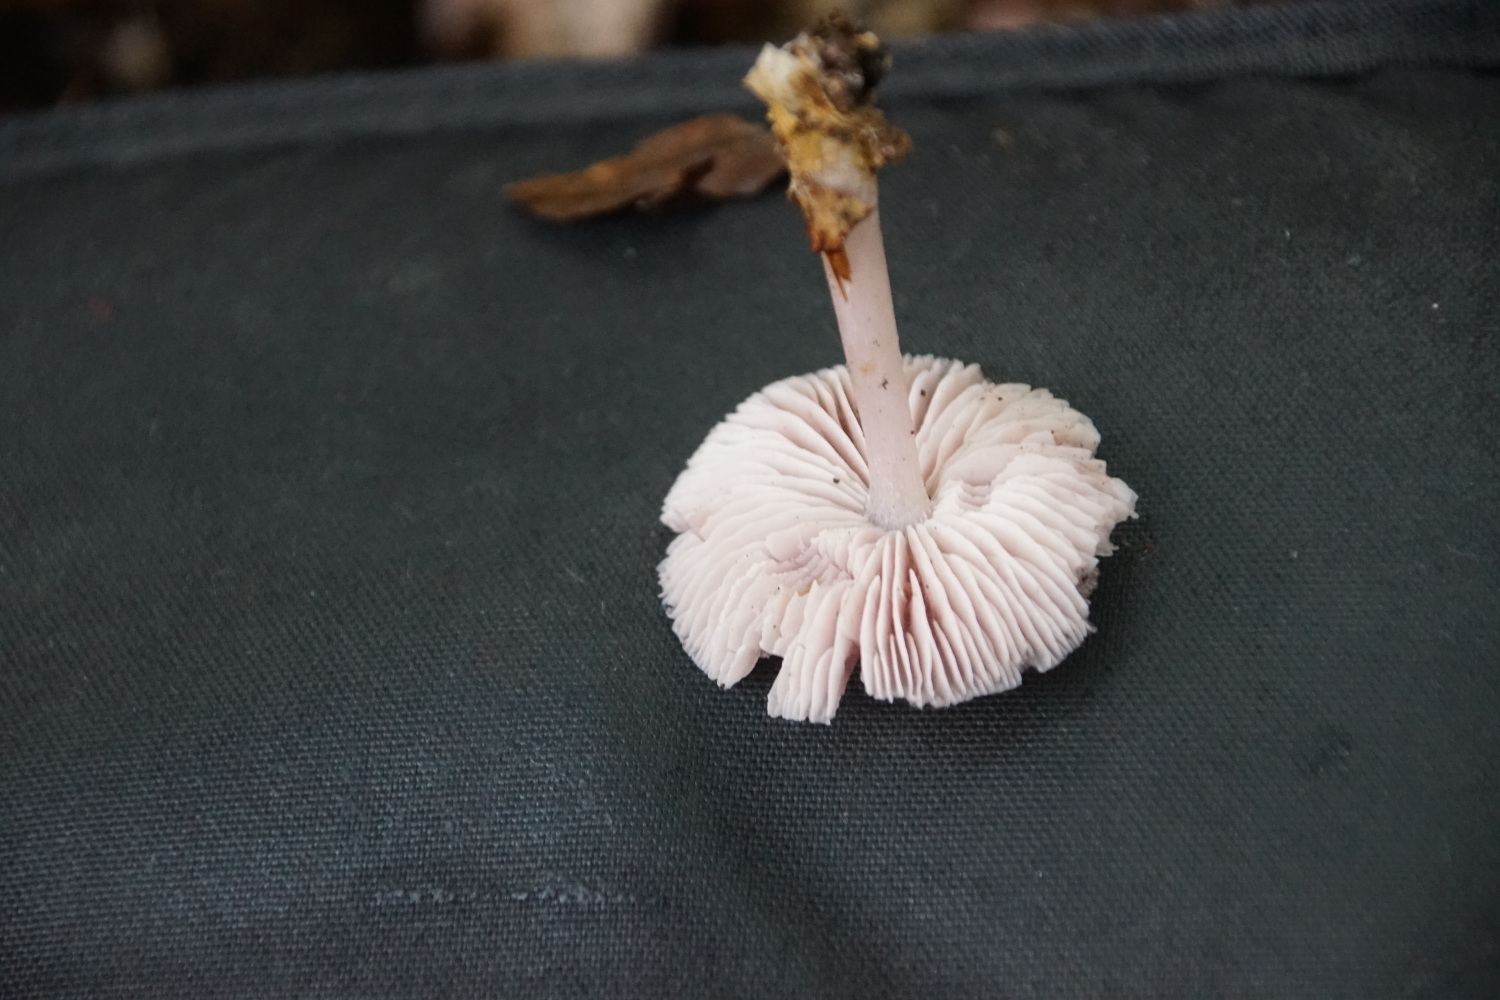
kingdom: Fungi
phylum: Basidiomycota
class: Agaricomycetes
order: Agaricales
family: Mycenaceae
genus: Mycena
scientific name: Mycena rosea
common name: rosa huesvamp
